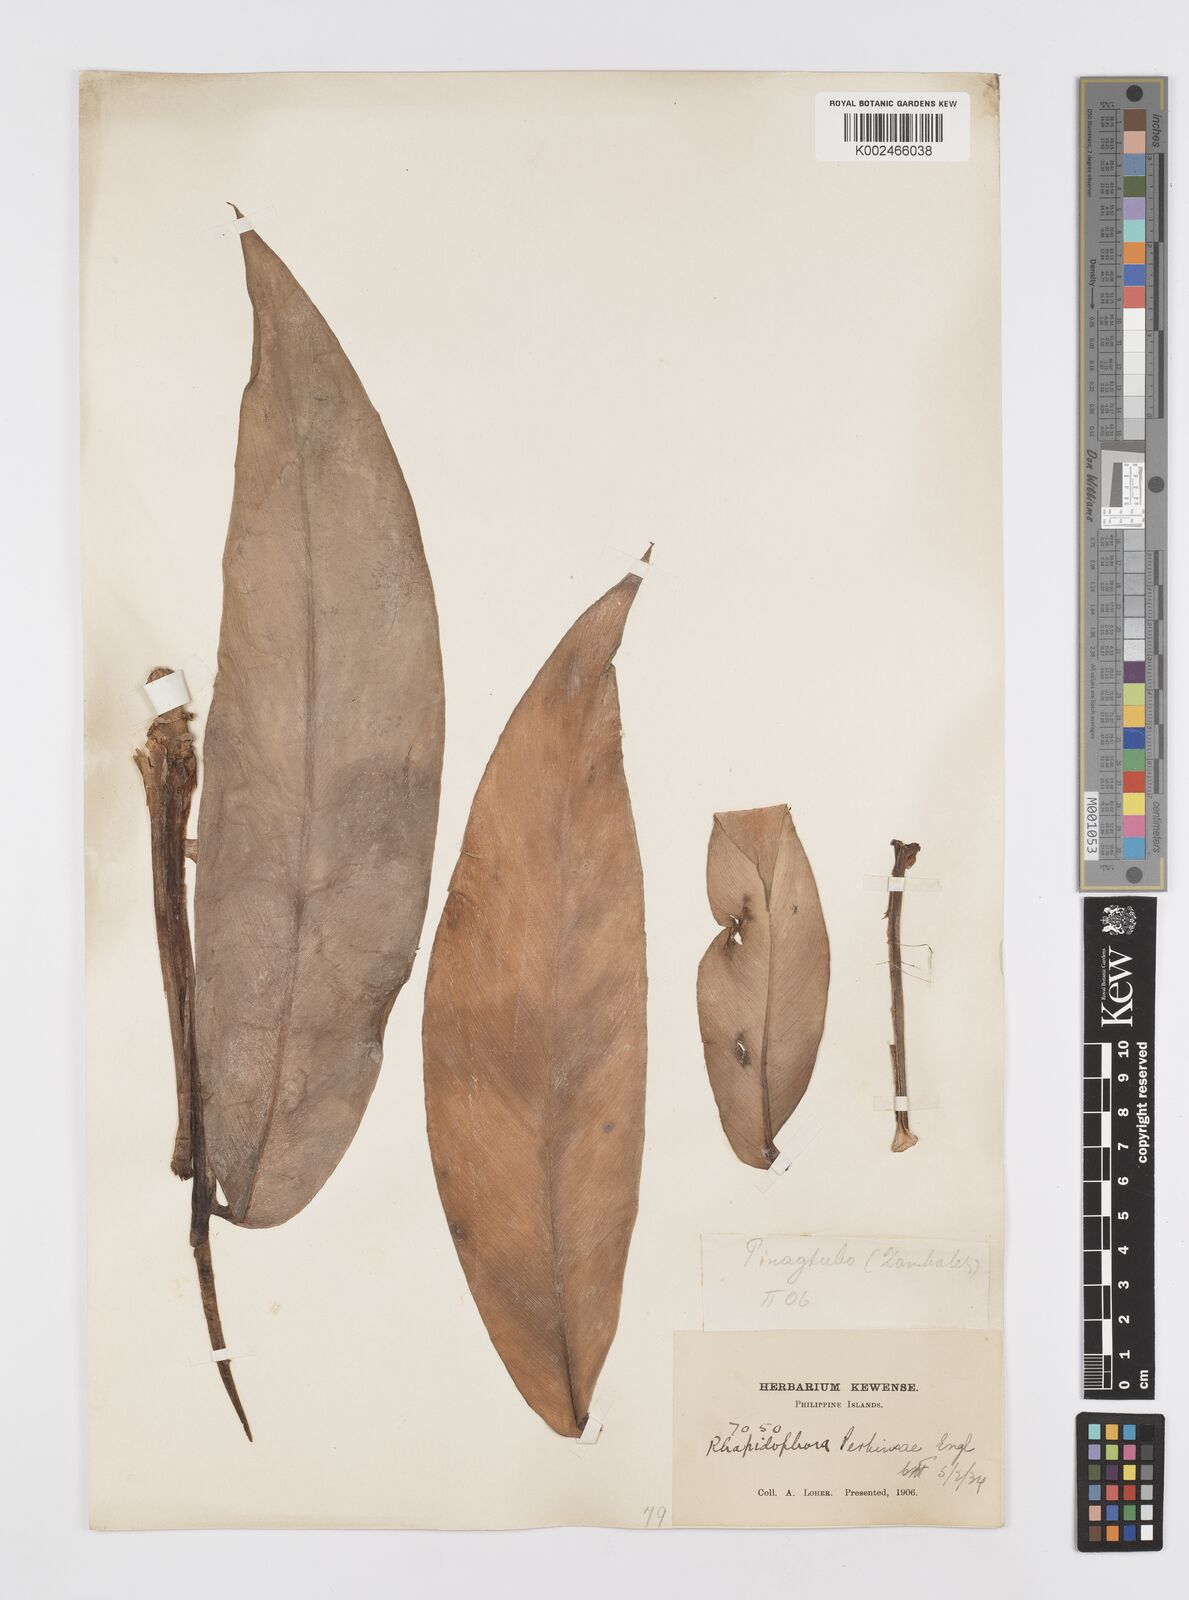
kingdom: Plantae
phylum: Tracheophyta
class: Liliopsida
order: Alismatales
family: Araceae
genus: Rhaphidophora
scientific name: Rhaphidophora banosensis
